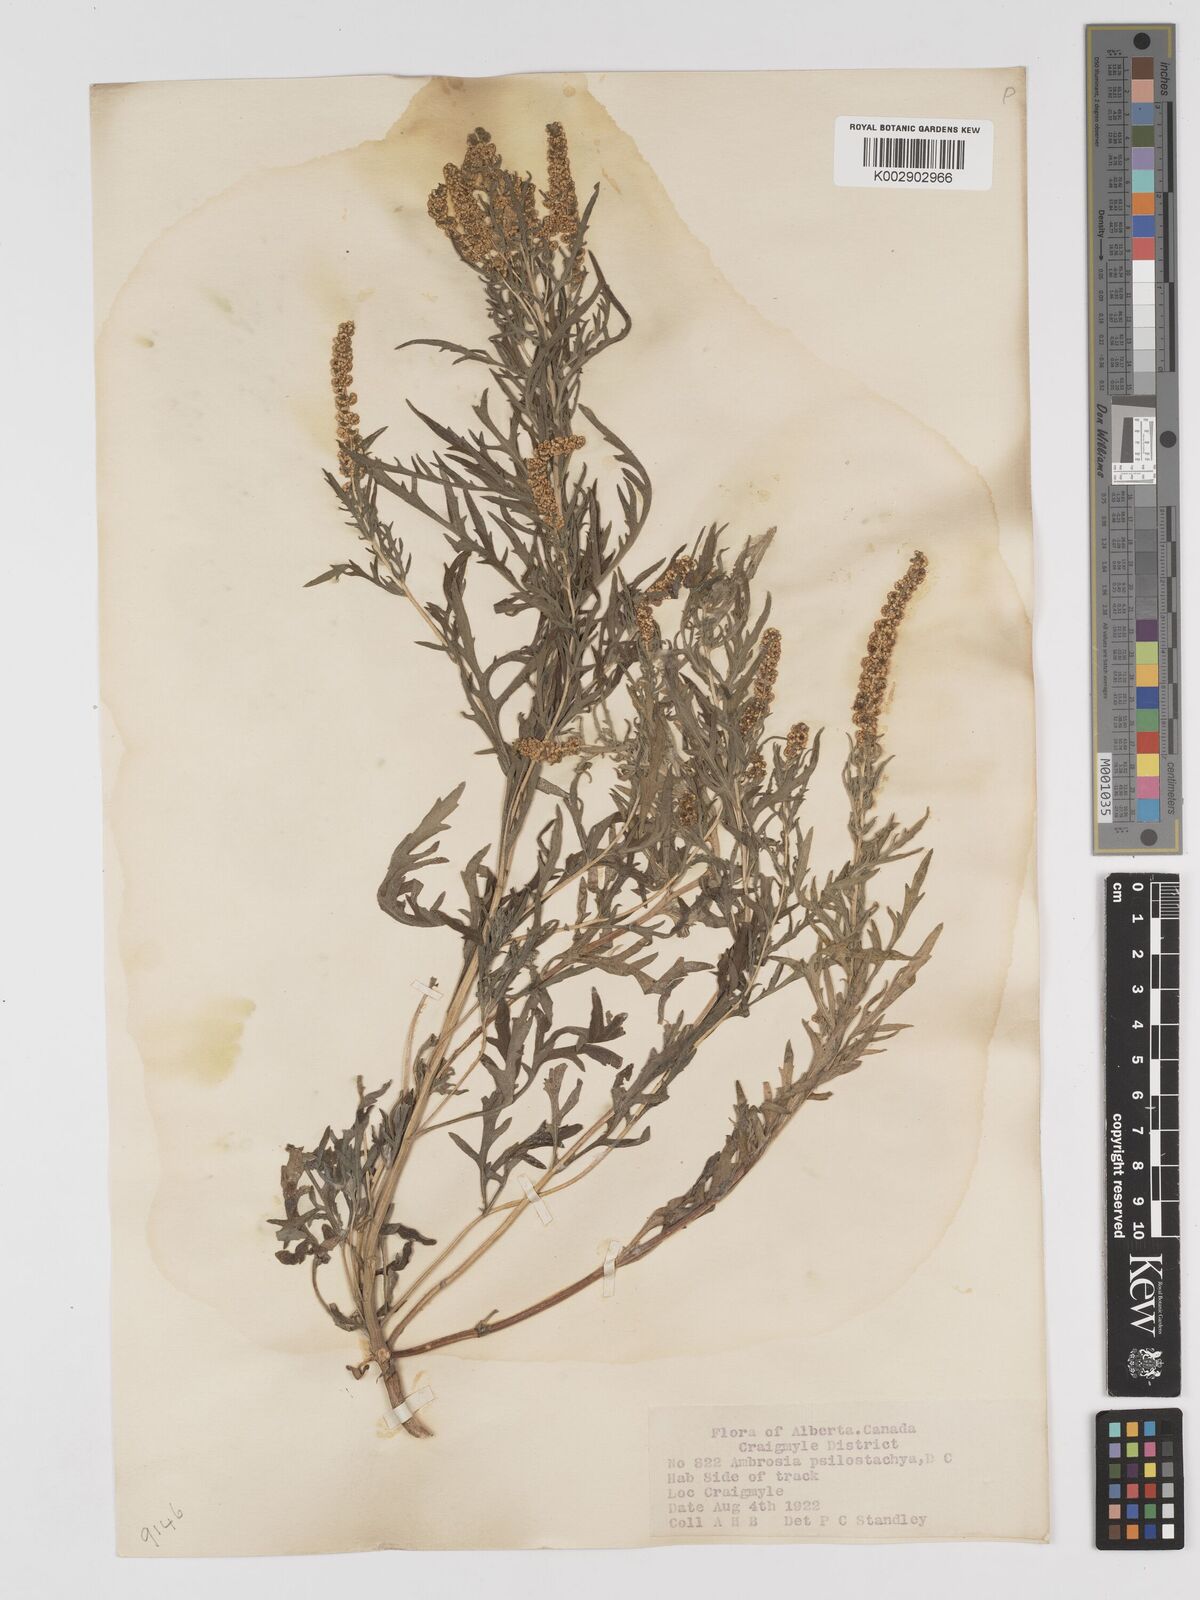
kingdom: Plantae
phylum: Tracheophyta
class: Magnoliopsida
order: Asterales
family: Asteraceae
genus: Ambrosia
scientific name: Ambrosia psilostachya
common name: Perennial ragweed
